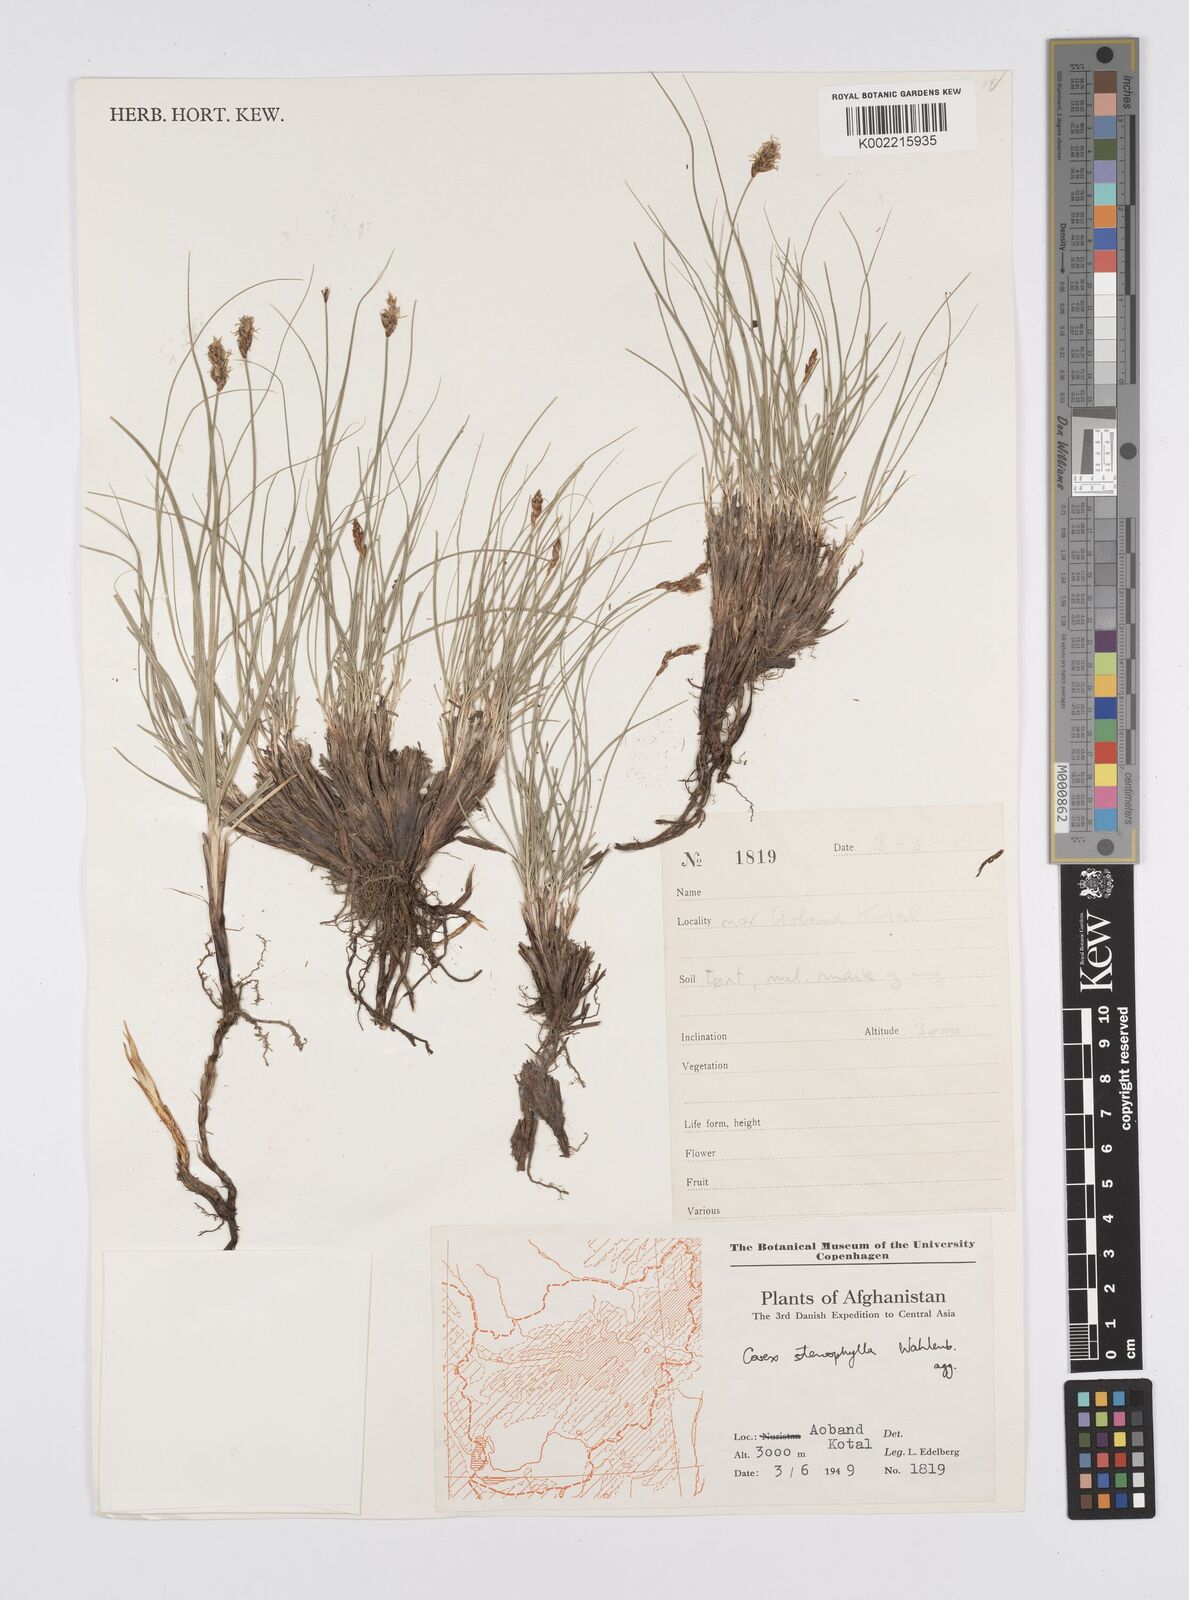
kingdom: Plantae
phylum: Tracheophyta
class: Liliopsida
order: Poales
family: Cyperaceae
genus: Carex
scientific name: Carex stenophylla
